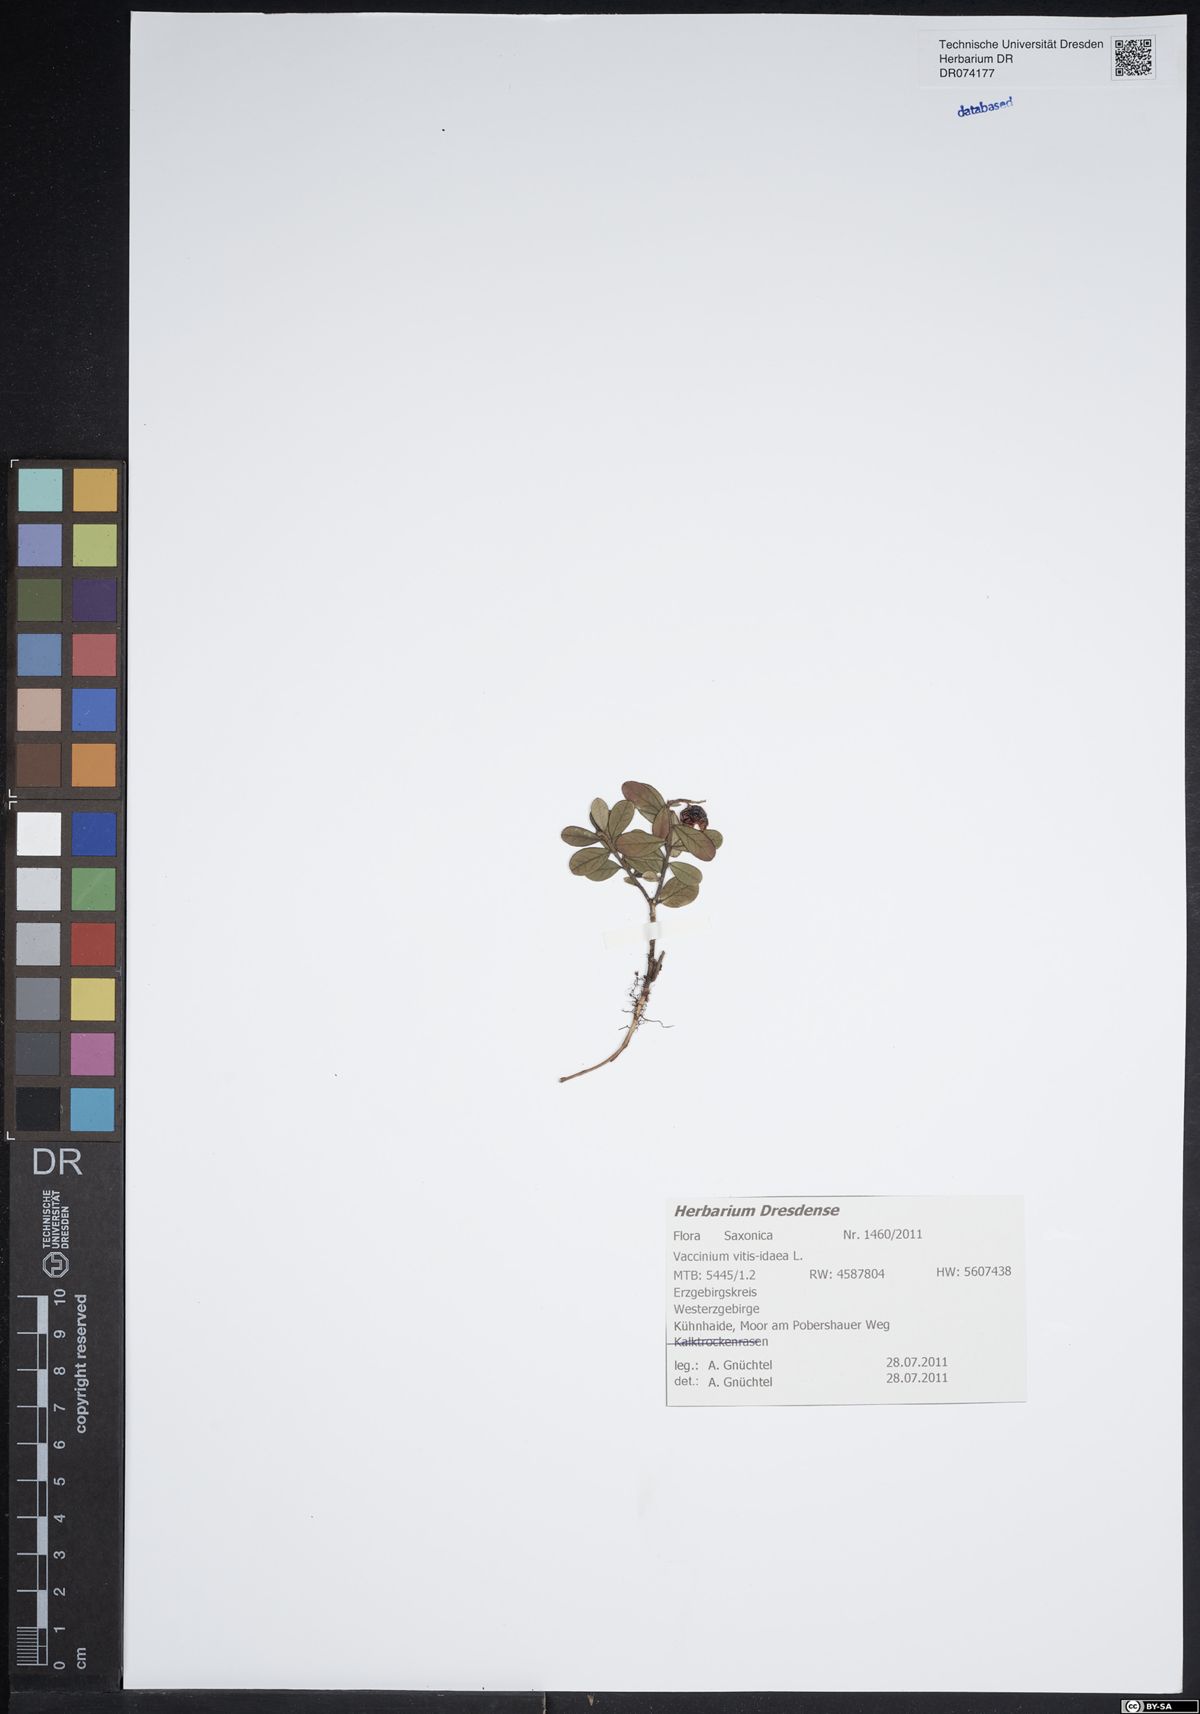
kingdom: Plantae
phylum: Tracheophyta
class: Magnoliopsida
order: Ericales
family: Ericaceae
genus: Vaccinium
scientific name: Vaccinium vitis-idaea
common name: Cowberry
